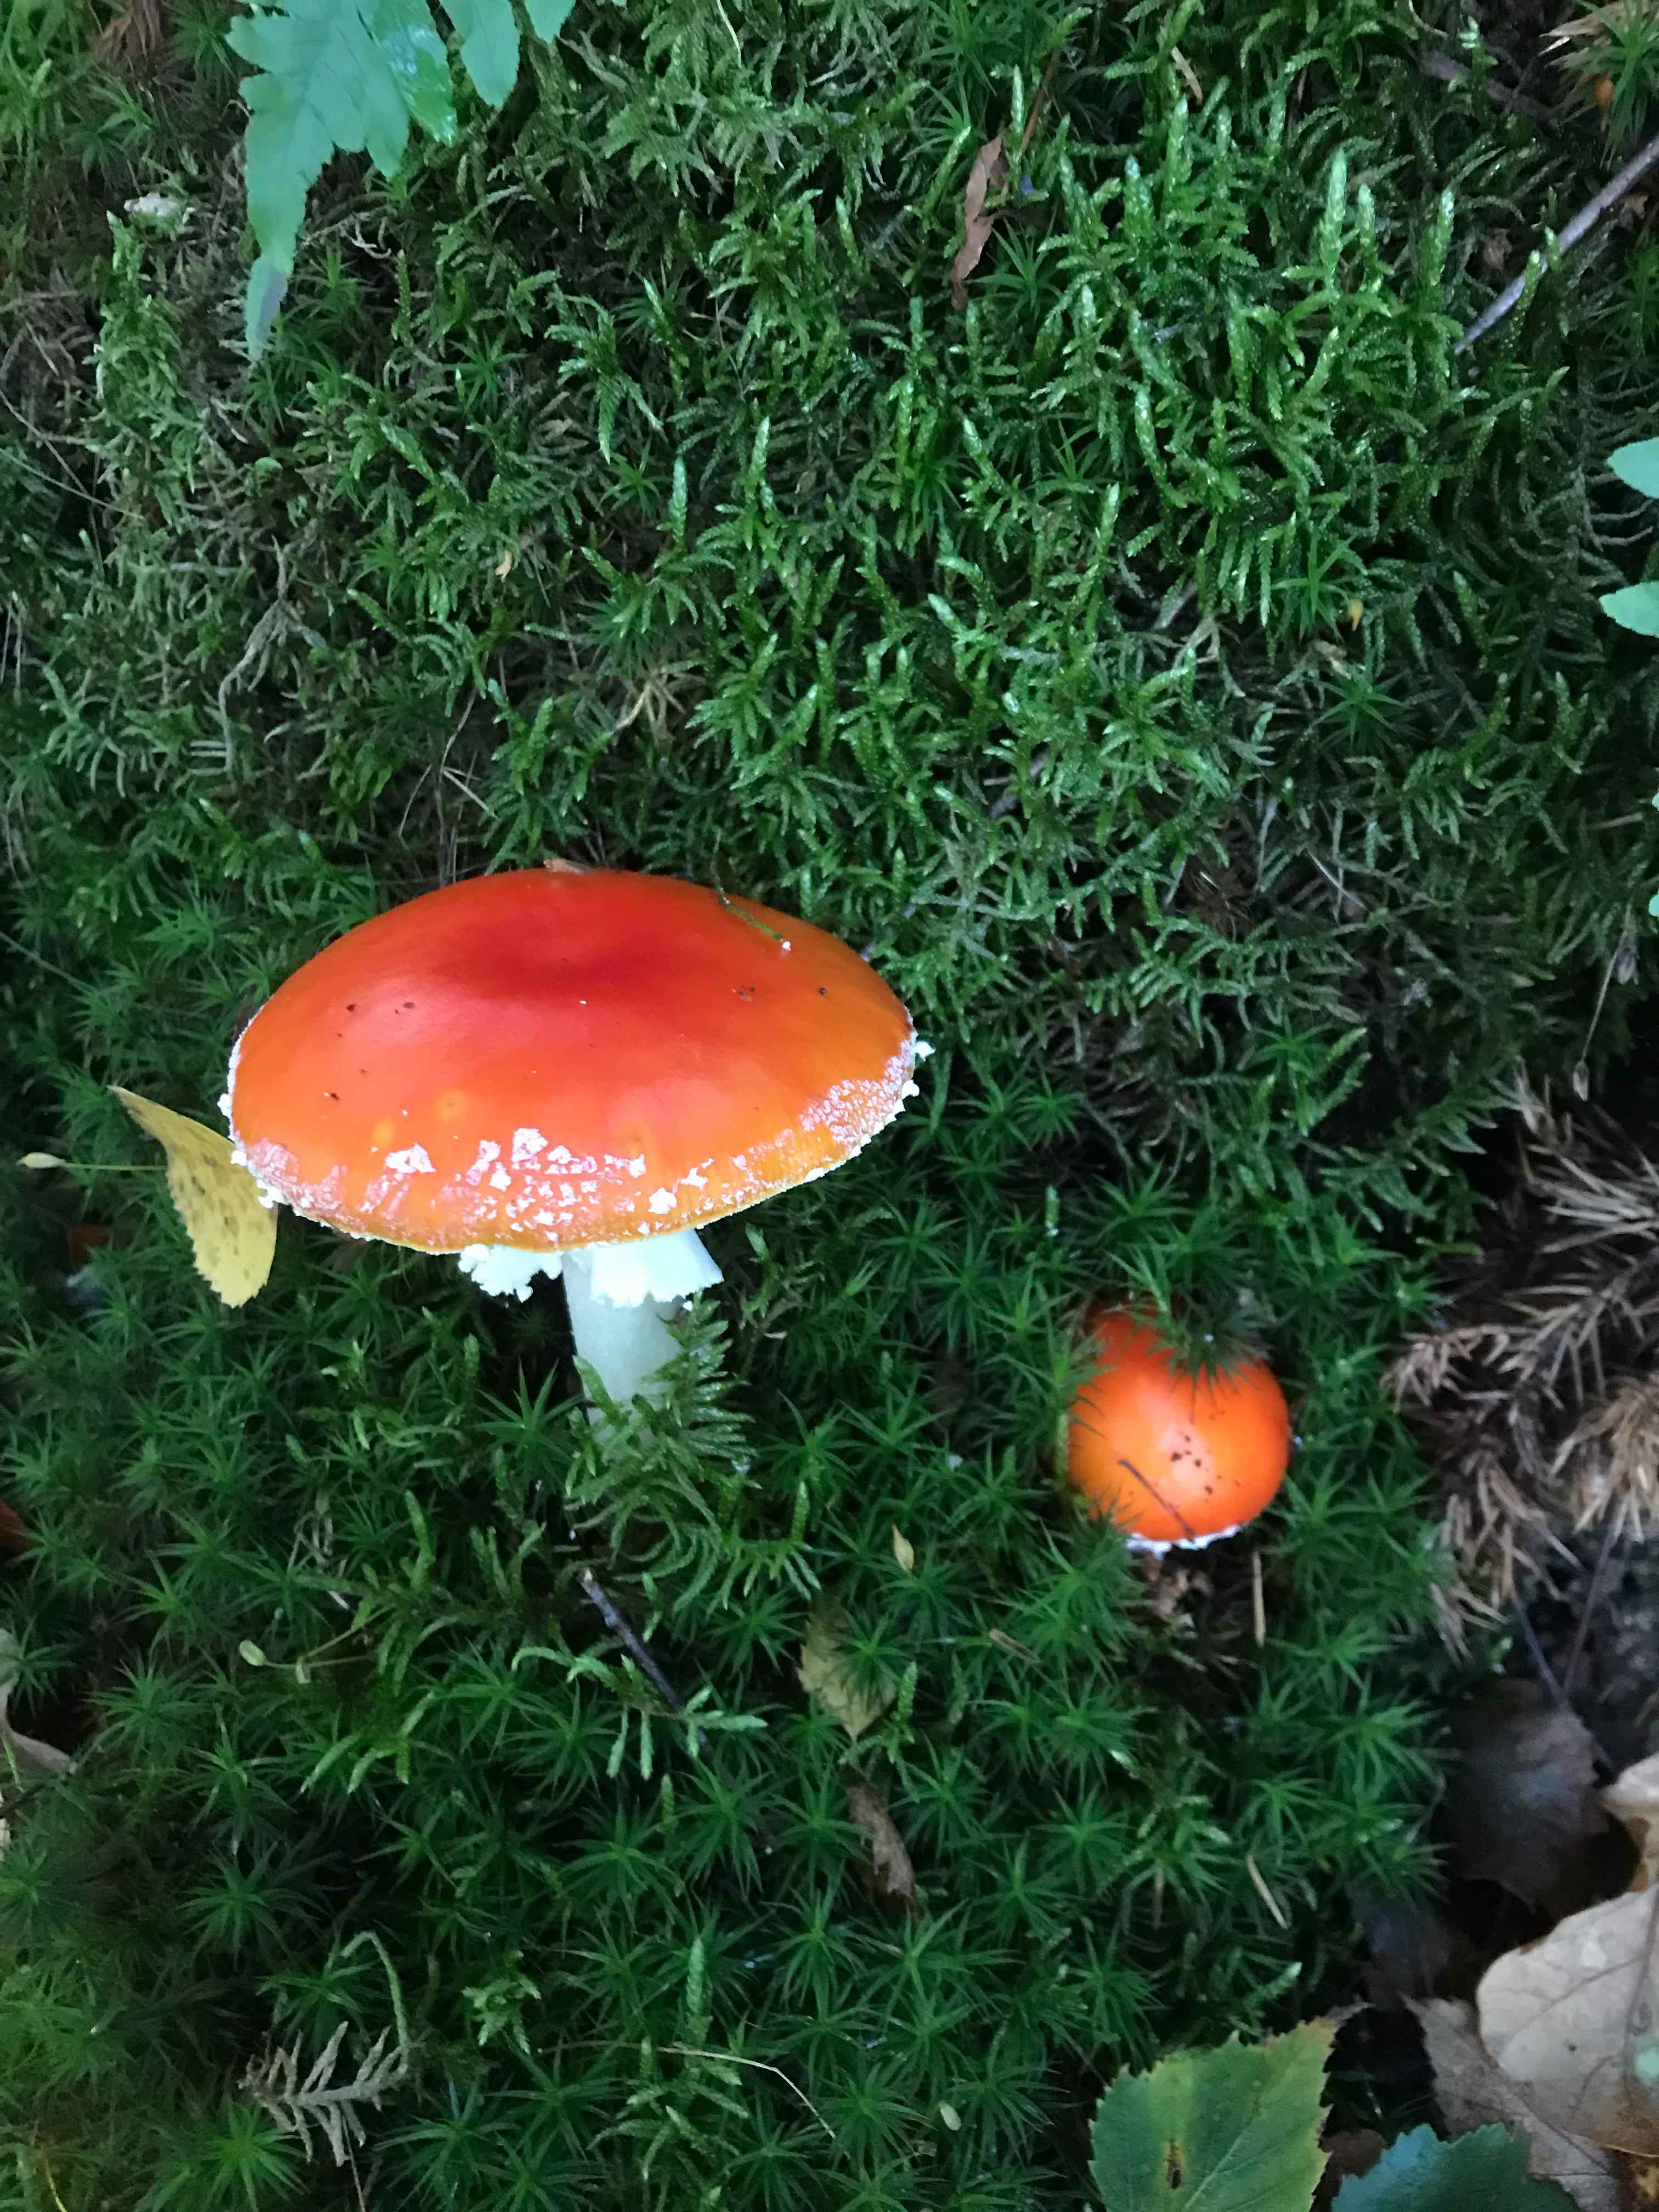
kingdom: Fungi
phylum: Basidiomycota
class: Agaricomycetes
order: Agaricales
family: Amanitaceae
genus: Amanita
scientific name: Amanita muscaria
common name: rød fluesvamp
